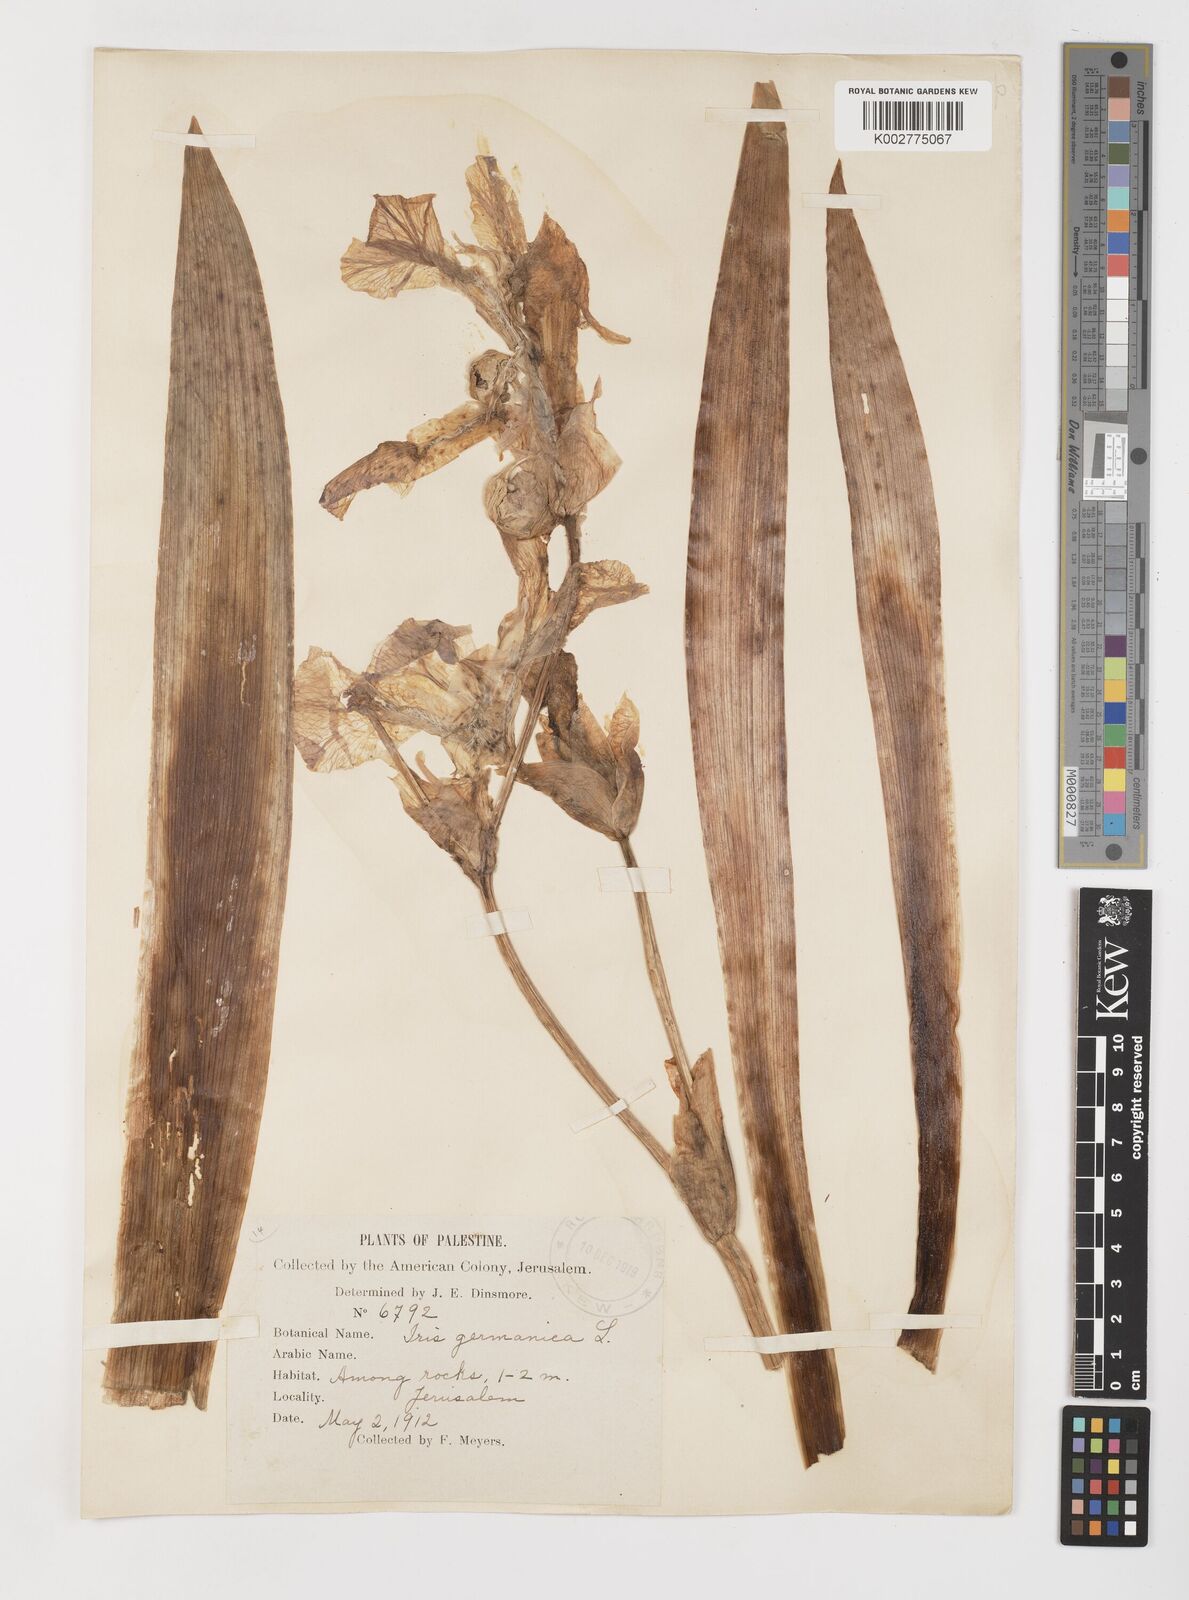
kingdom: Plantae
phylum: Tracheophyta
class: Liliopsida
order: Asparagales
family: Iridaceae
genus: Iris
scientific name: Iris germanica
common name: German iris
